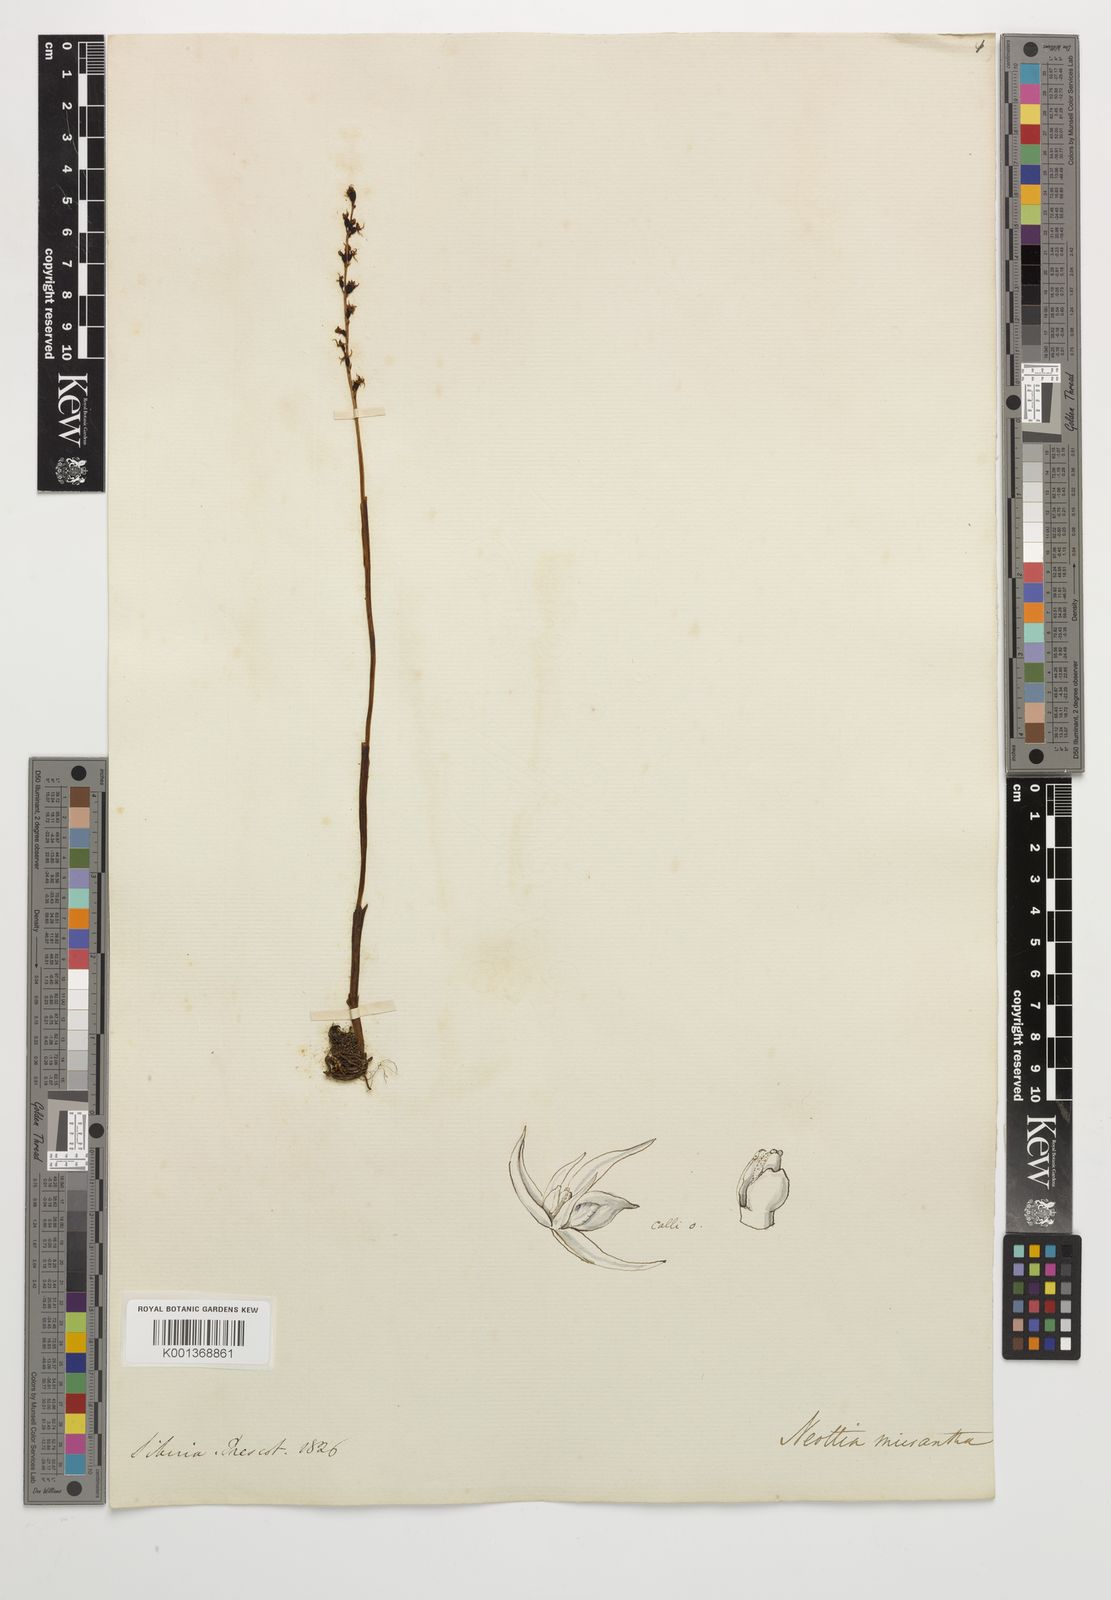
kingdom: Plantae
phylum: Tracheophyta
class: Liliopsida
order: Asparagales
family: Orchidaceae
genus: Neottia
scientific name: Neottia acuminata
